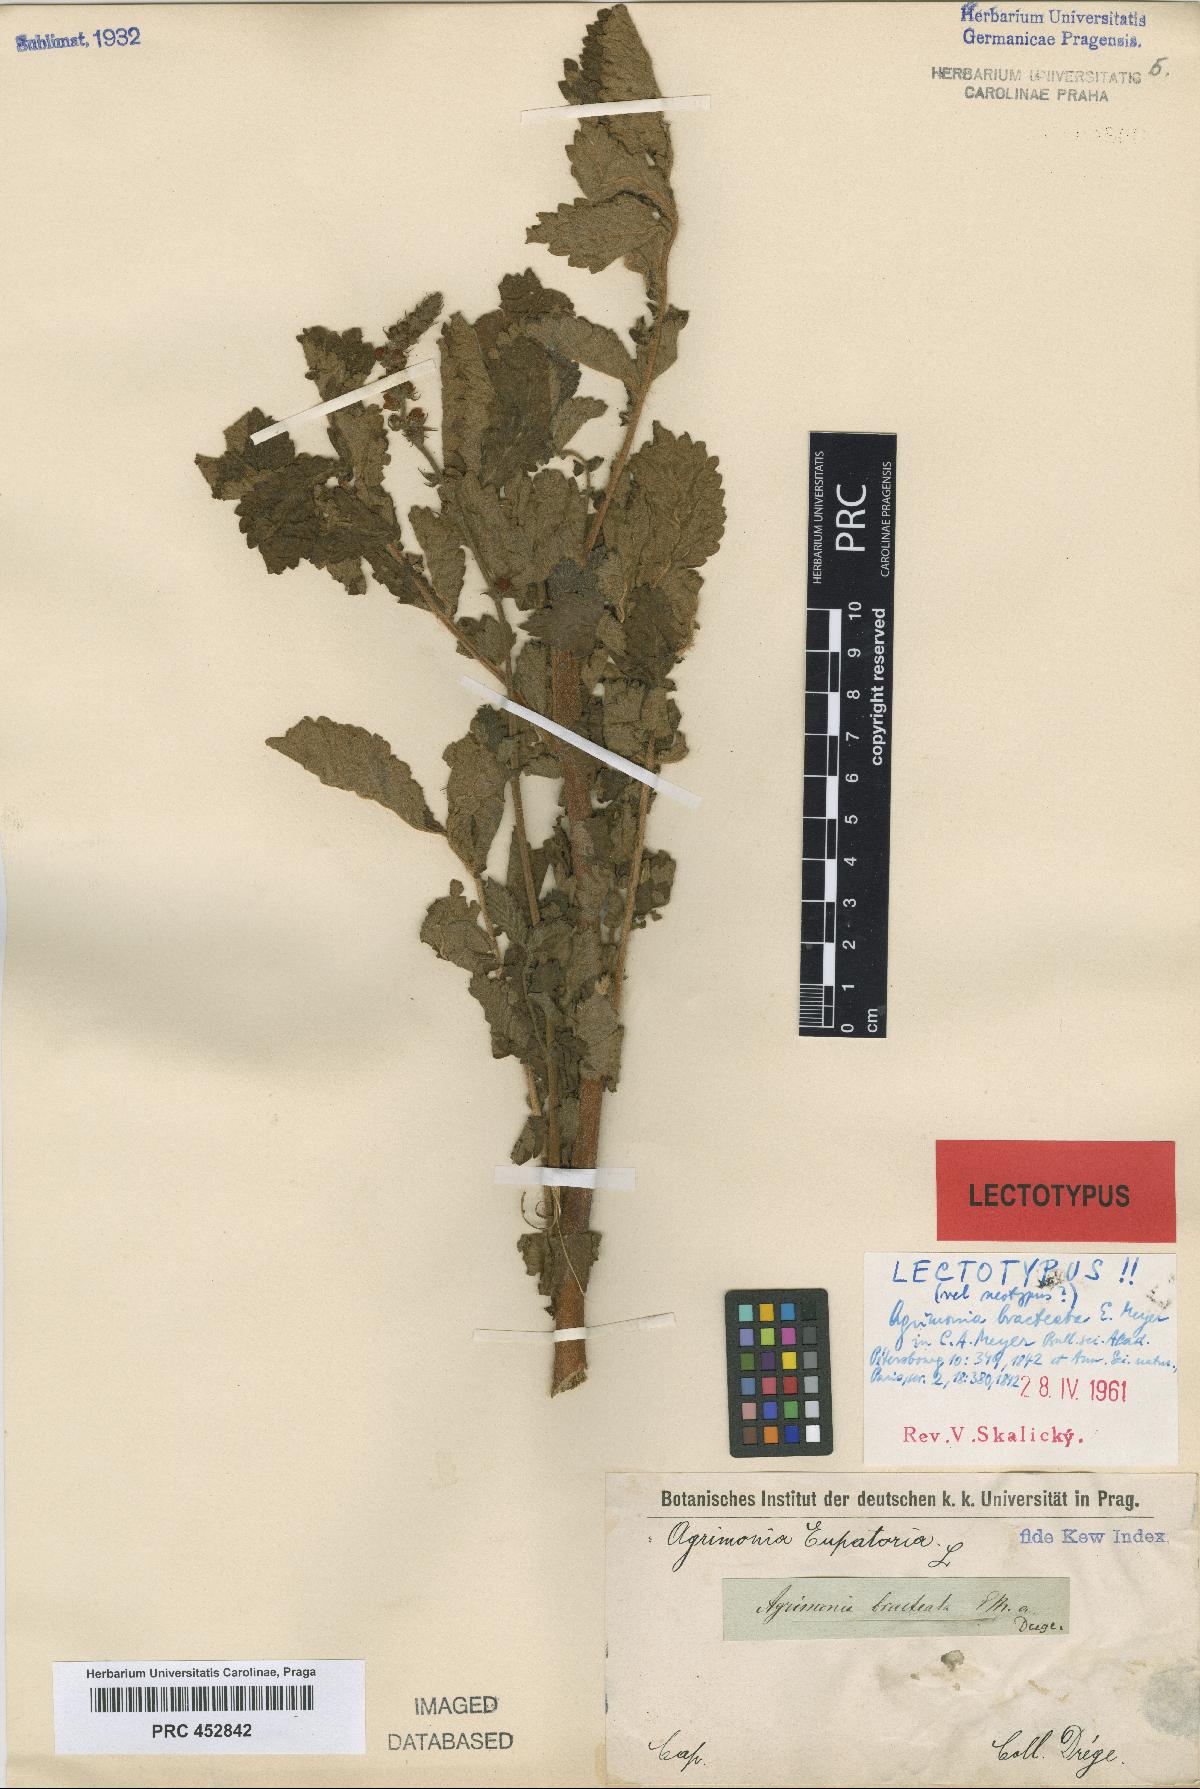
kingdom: Plantae
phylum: Tracheophyta
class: Magnoliopsida
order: Rosales
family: Rosaceae
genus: Agrimonia
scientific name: Agrimonia bracteata
